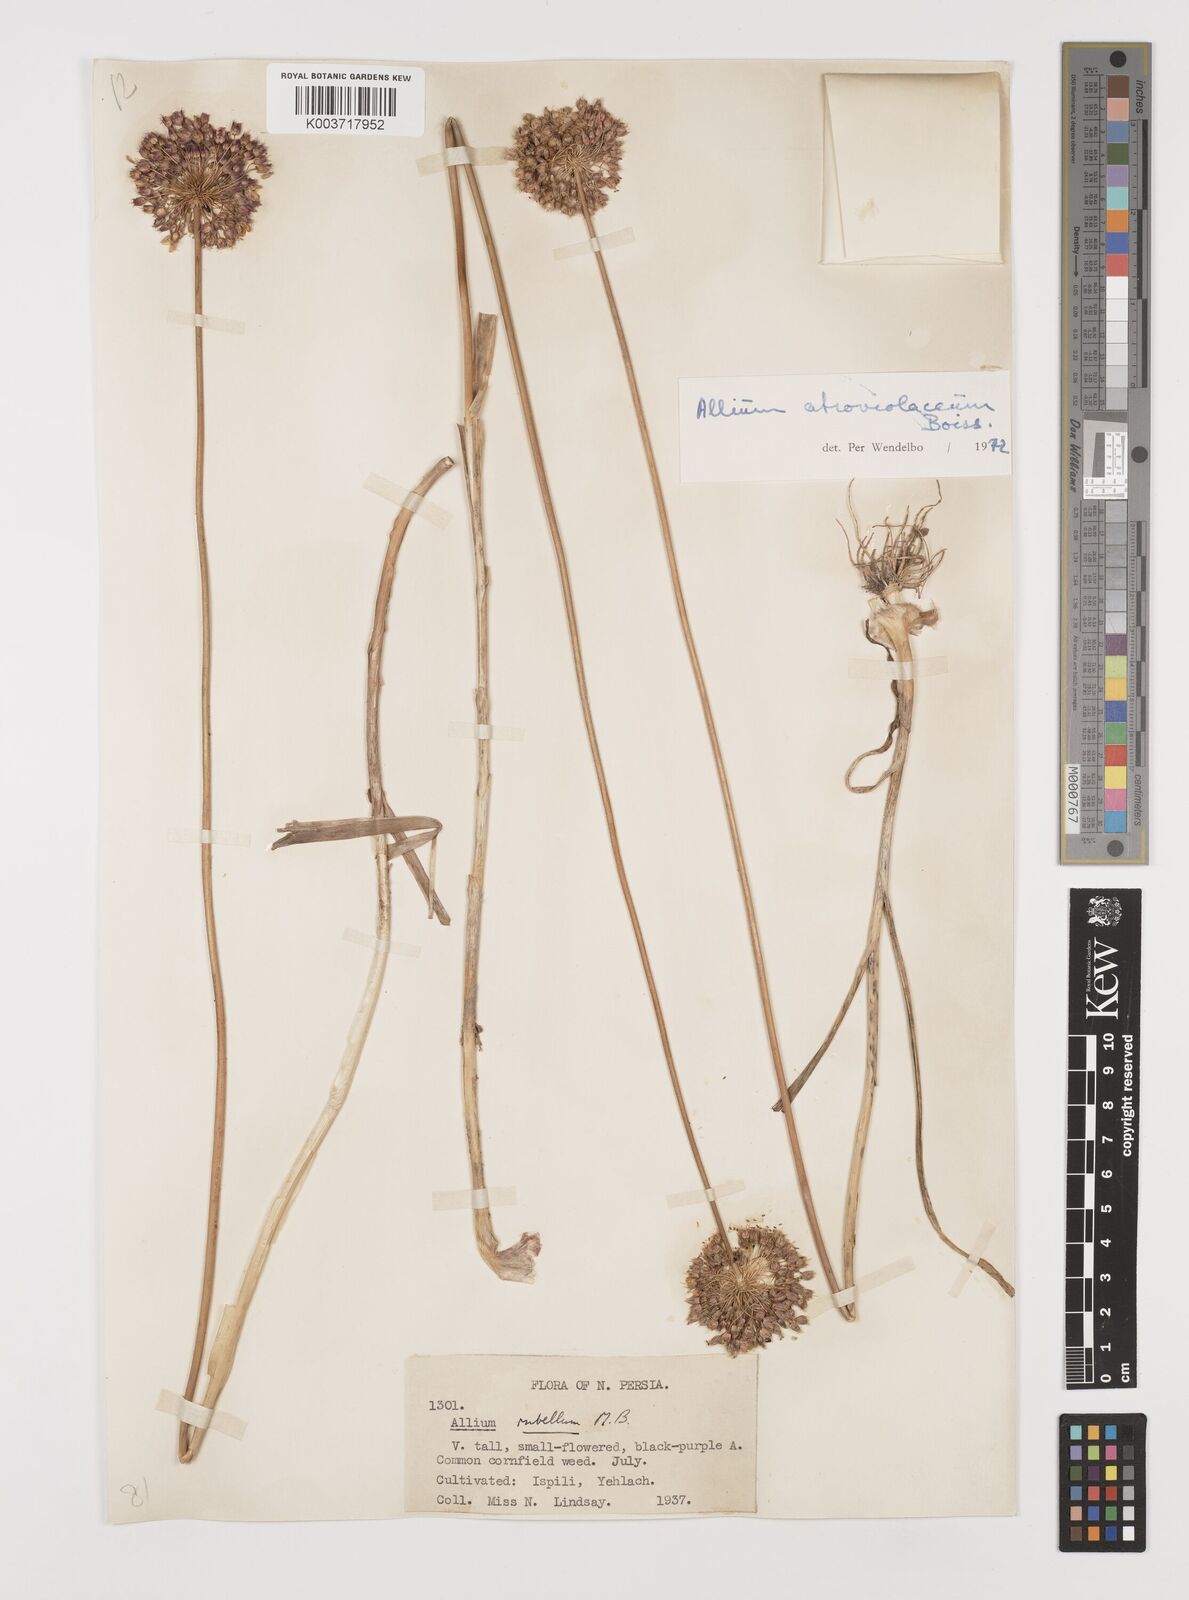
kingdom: Plantae
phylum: Tracheophyta
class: Liliopsida
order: Asparagales
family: Amaryllidaceae
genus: Allium
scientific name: Allium atroviolaceum
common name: Broadleaf wild leek
